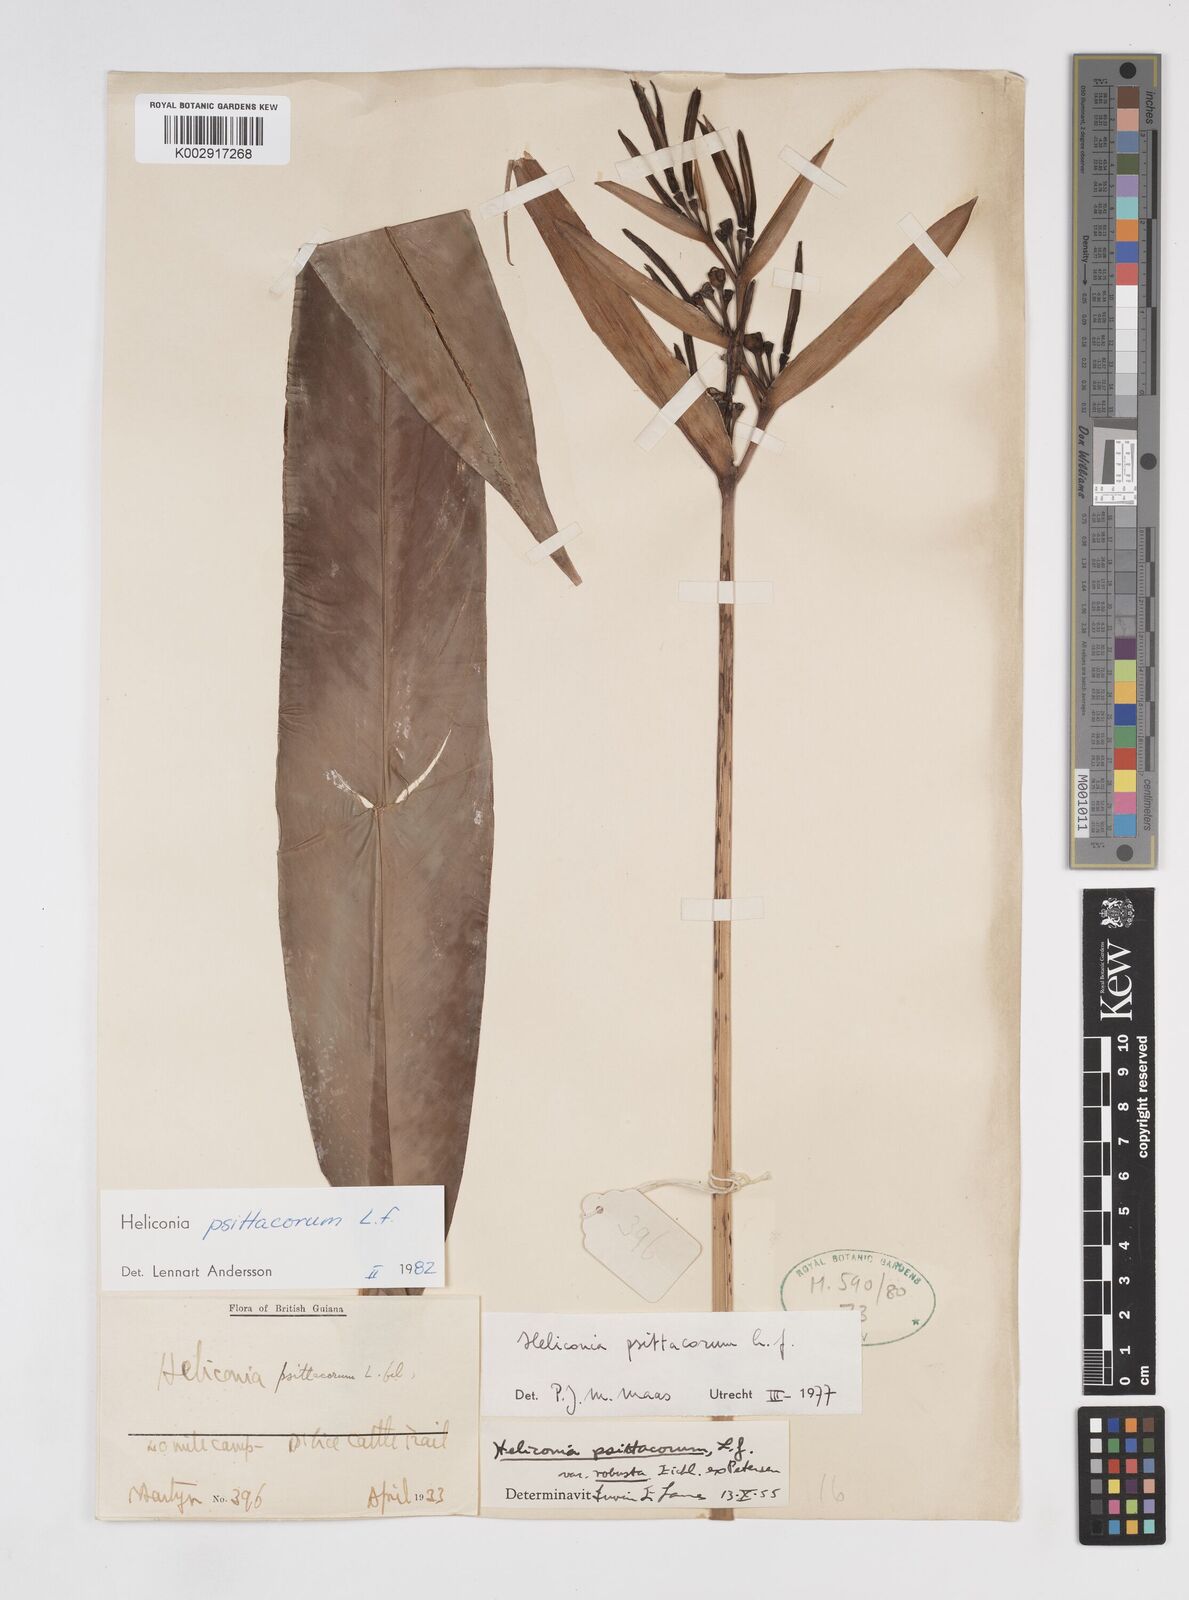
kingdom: Plantae
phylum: Tracheophyta
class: Liliopsida
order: Zingiberales
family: Heliconiaceae
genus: Heliconia
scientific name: Heliconia psittacorum
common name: Parrot's-flower
